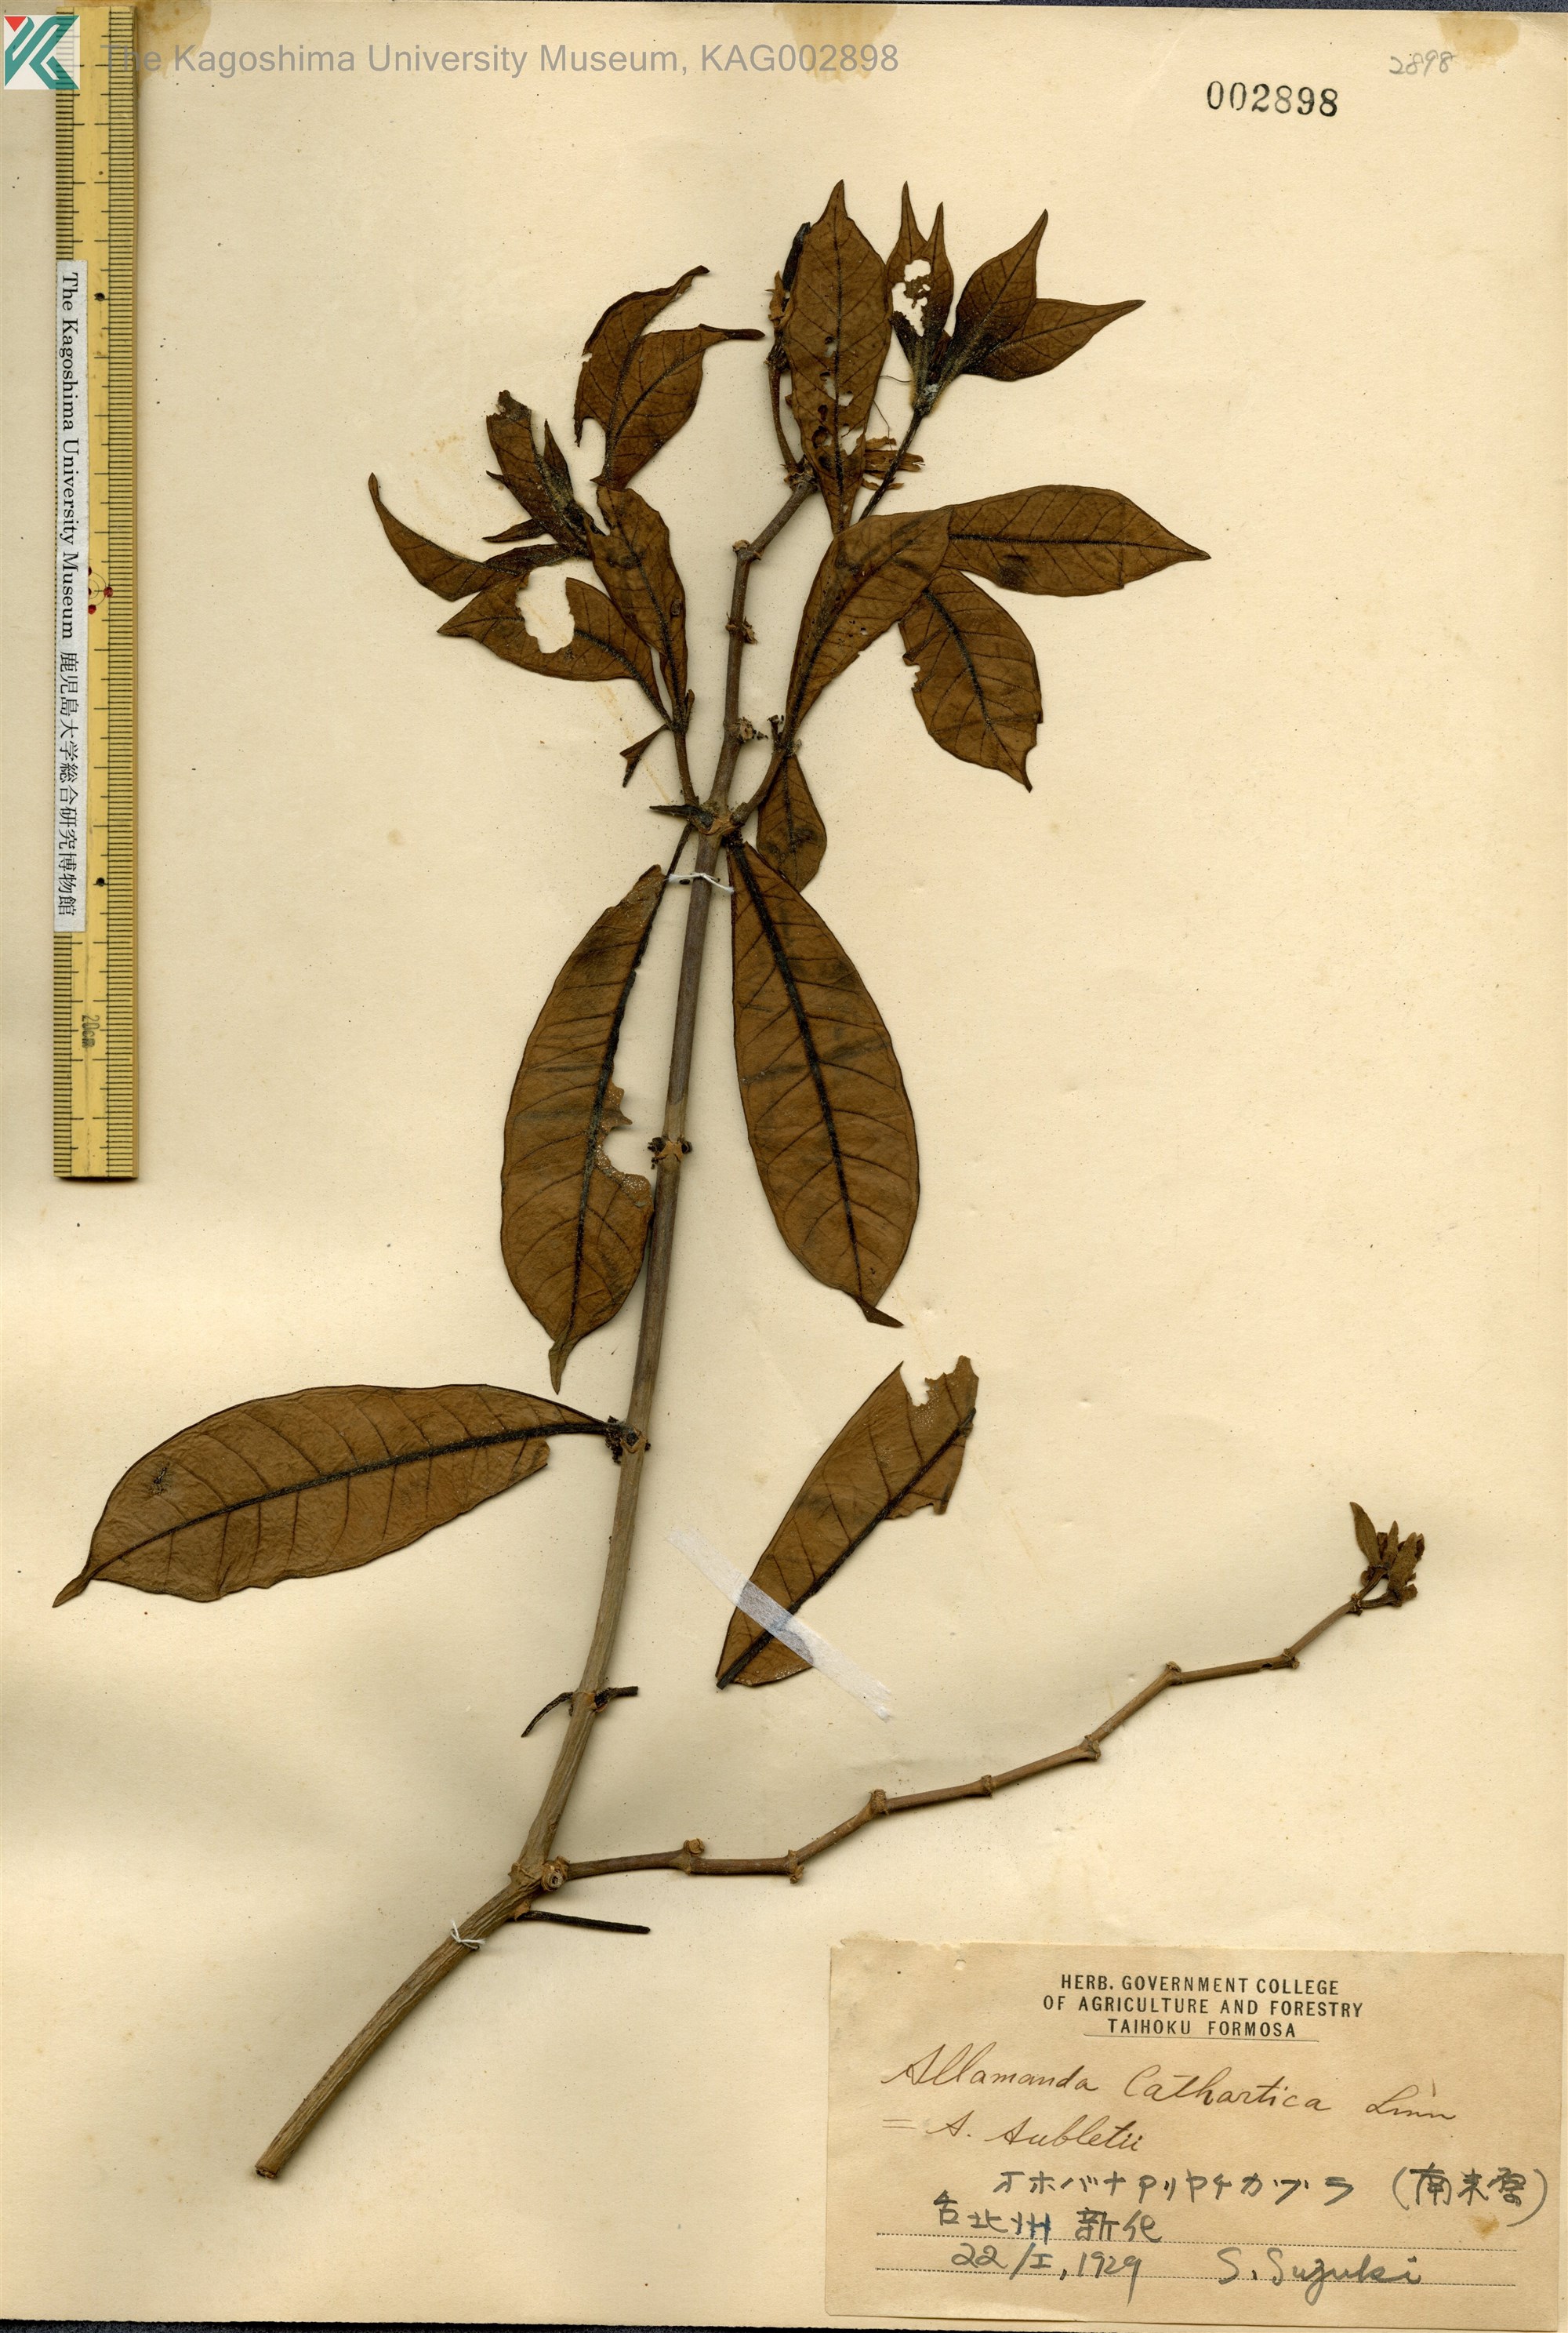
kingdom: Plantae
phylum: Tracheophyta
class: Magnoliopsida
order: Gentianales
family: Apocynaceae
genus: Allamanda
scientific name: Allamanda cathartica
